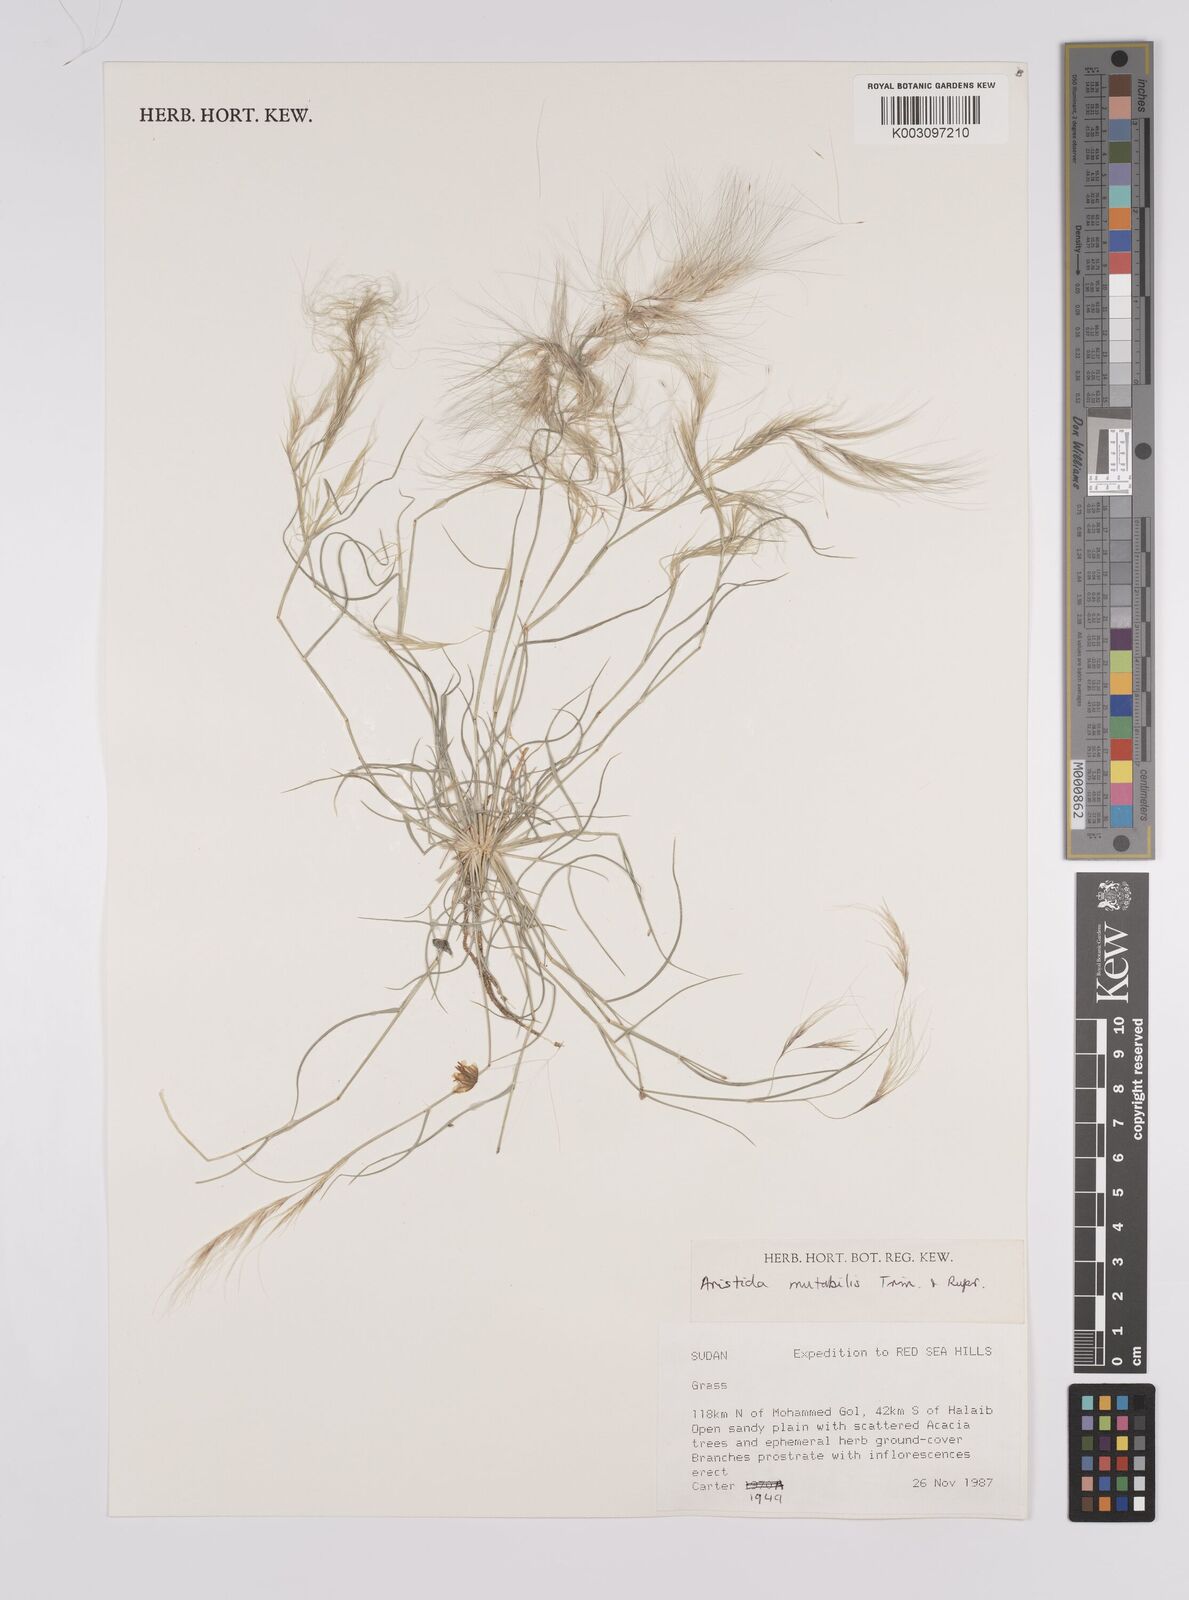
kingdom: Plantae
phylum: Tracheophyta
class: Liliopsida
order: Poales
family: Poaceae
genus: Aristida
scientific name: Aristida mutabilis
